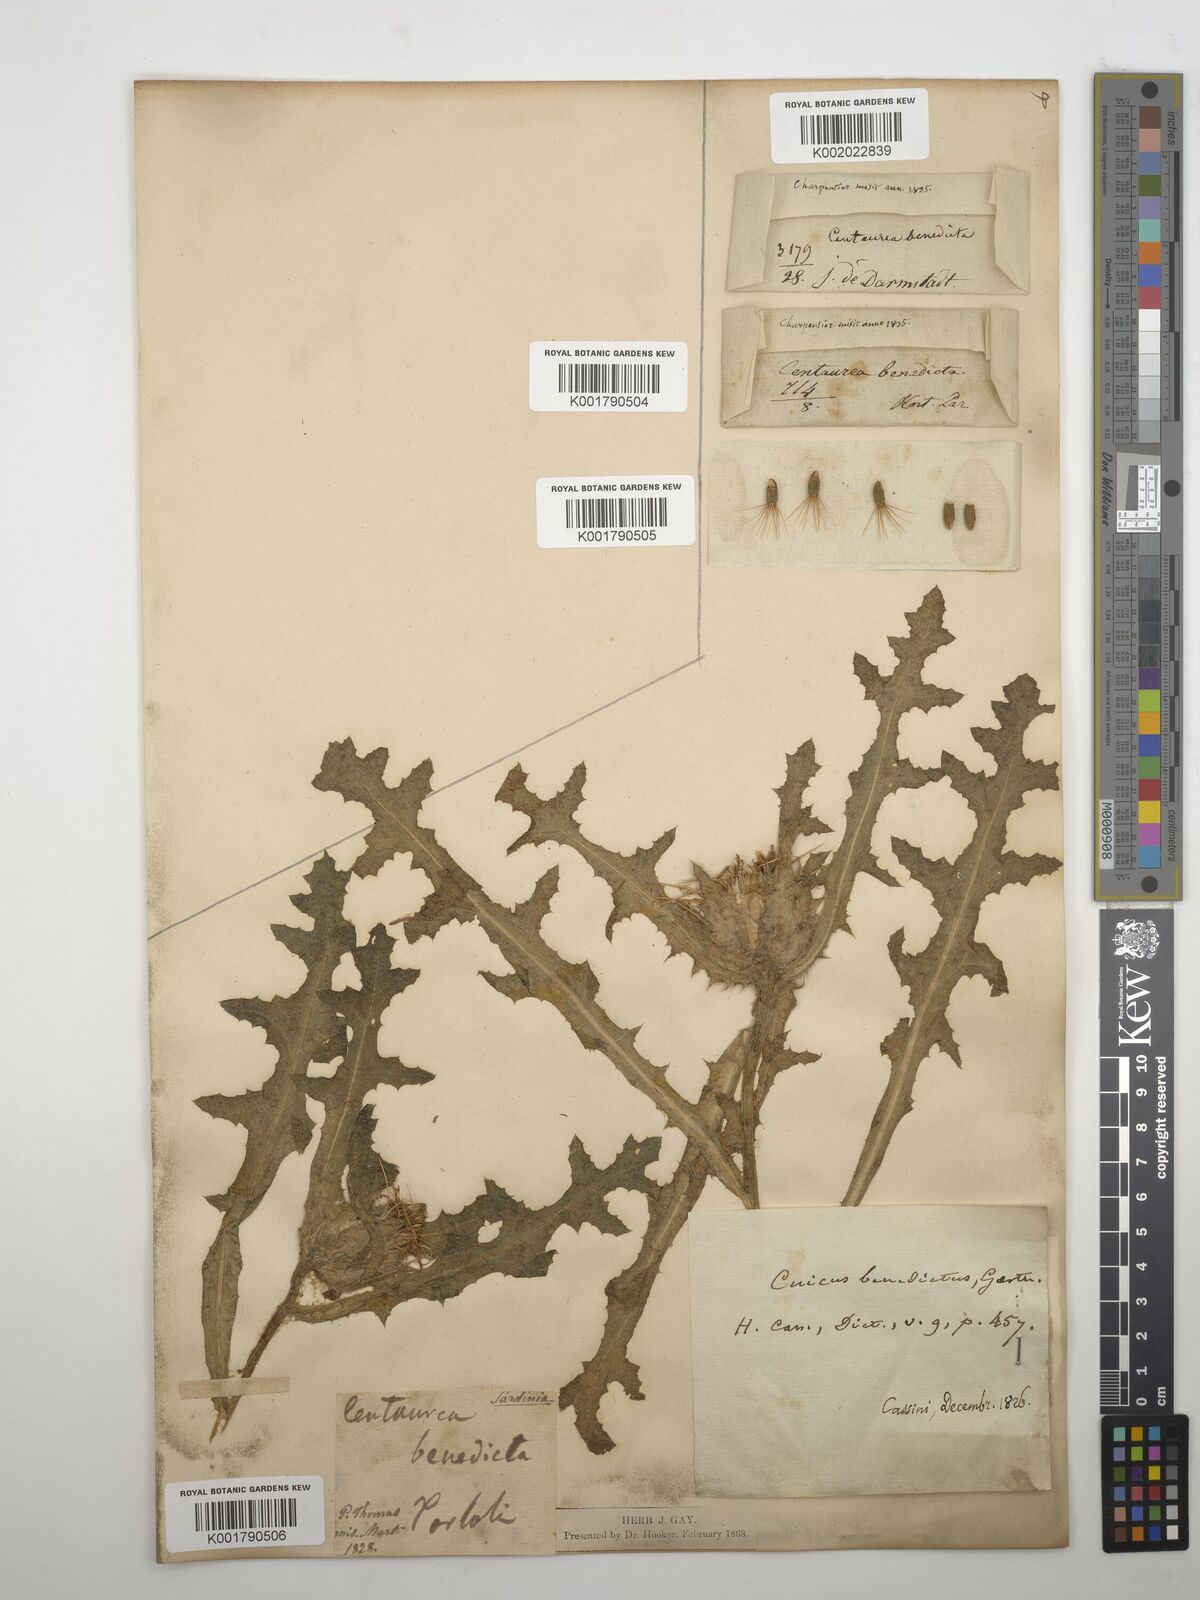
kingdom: Plantae
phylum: Tracheophyta
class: Magnoliopsida
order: Asterales
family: Asteraceae
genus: Centaurea
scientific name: Centaurea benedicta
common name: Blessed thistle
